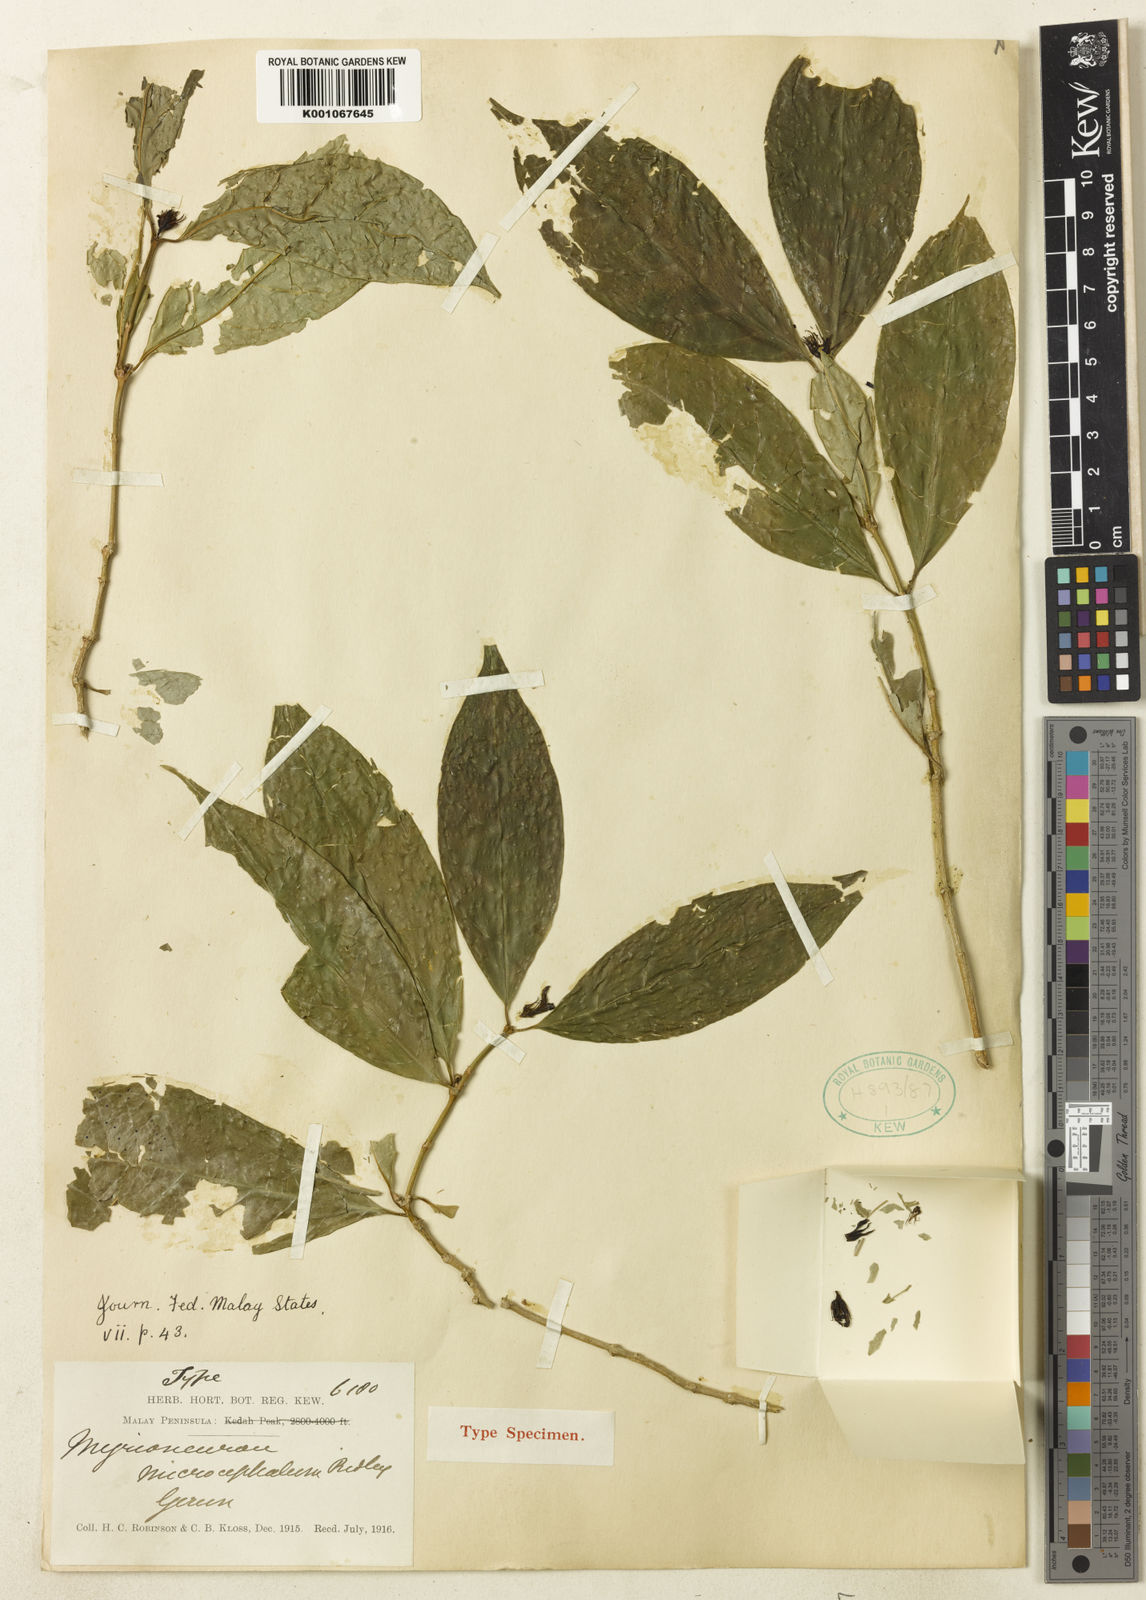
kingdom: Plantae
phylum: Tracheophyta
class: Magnoliopsida
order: Gentianales
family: Rubiaceae
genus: Rennellia
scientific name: Rennellia microcephala
